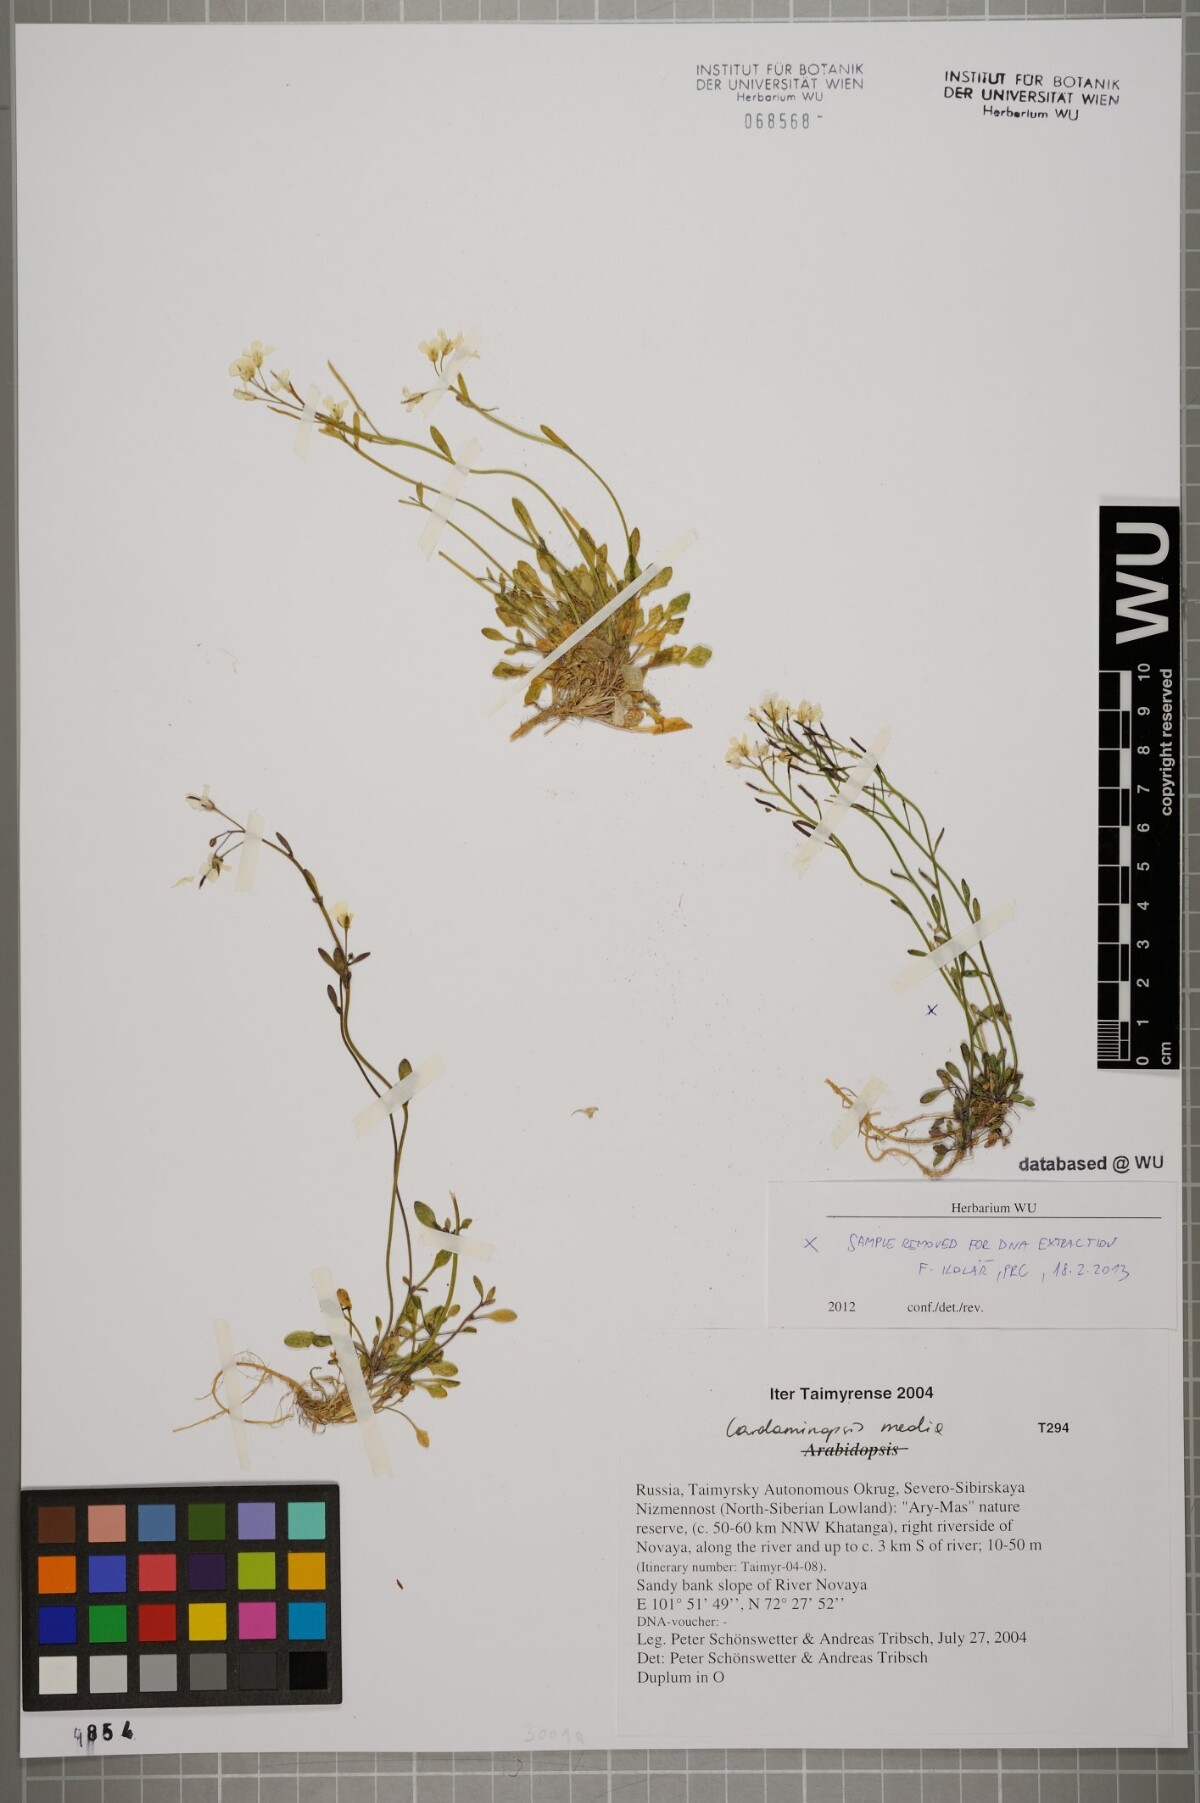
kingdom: Plantae
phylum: Tracheophyta
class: Magnoliopsida
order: Brassicales
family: Brassicaceae
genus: Arabidopsis
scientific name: Arabidopsis lyrata
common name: Lyrate rockcress
